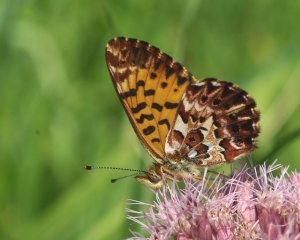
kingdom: Animalia
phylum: Arthropoda
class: Insecta
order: Lepidoptera
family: Nymphalidae
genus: Boloria
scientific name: Boloria chariclea
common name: Arctic Fritillary
